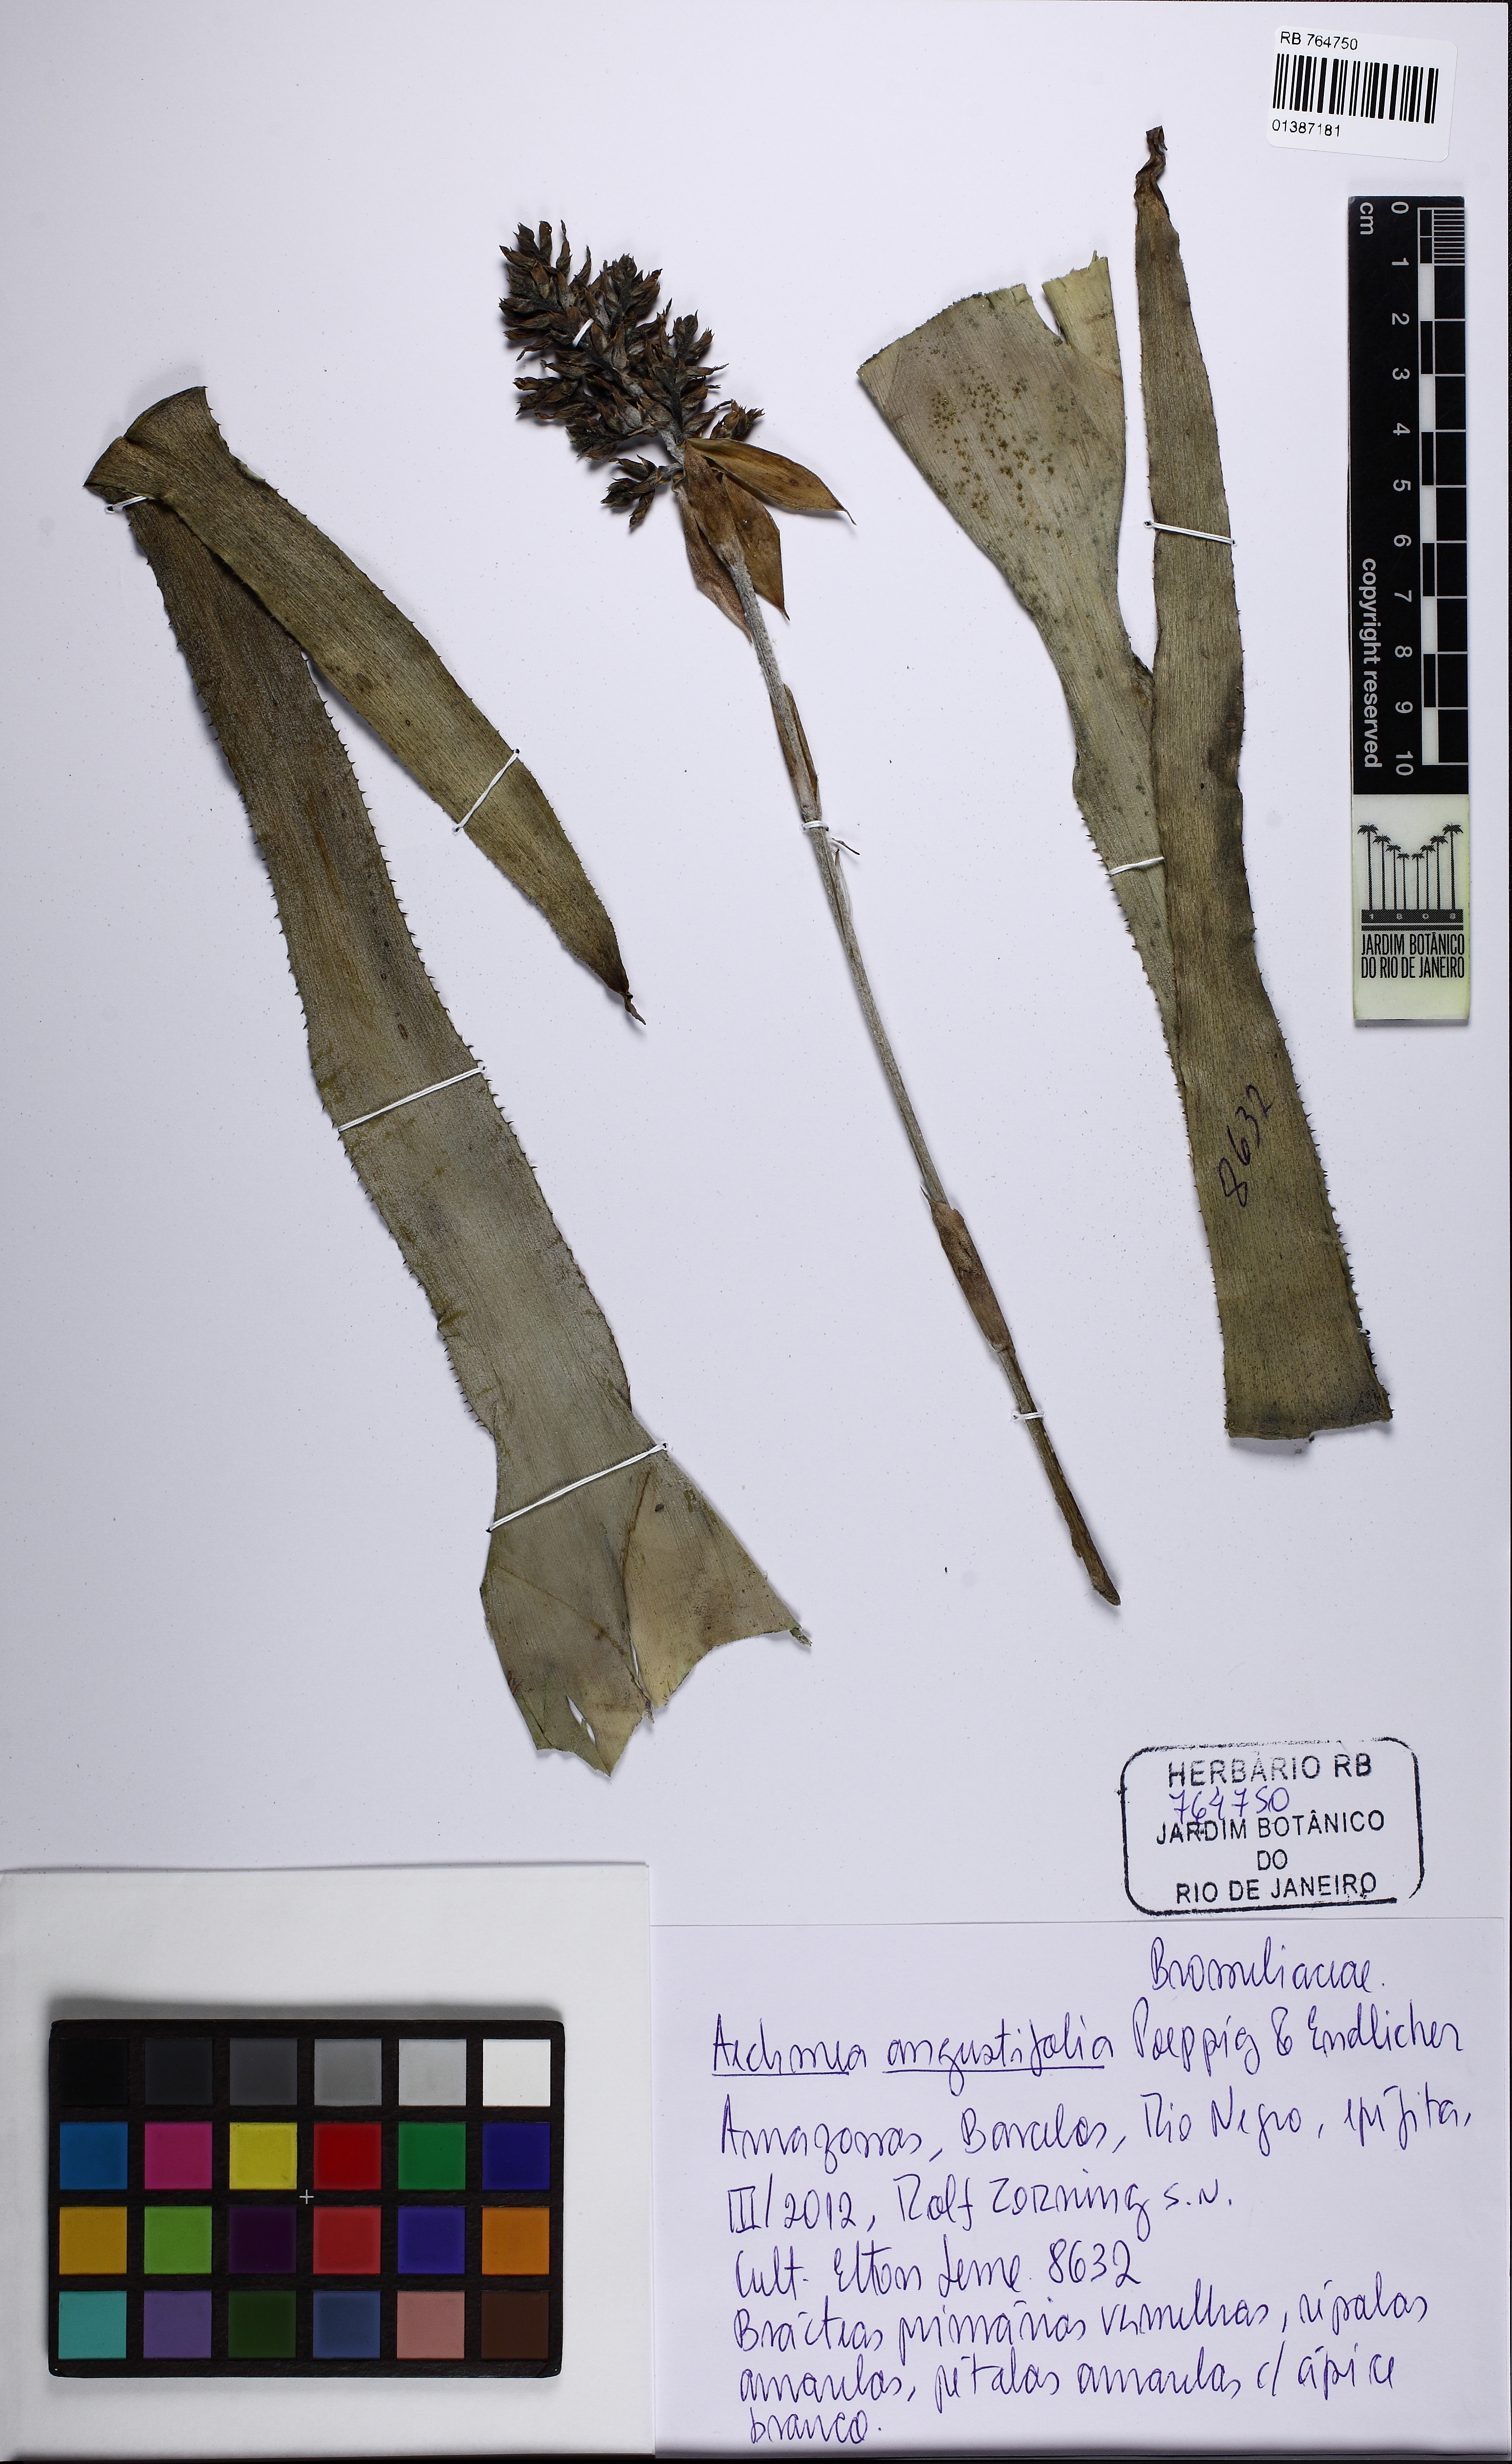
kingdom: Plantae
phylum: Tracheophyta
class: Liliopsida
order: Poales
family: Bromeliaceae
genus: Aechmea
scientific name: Aechmea angustifolia
